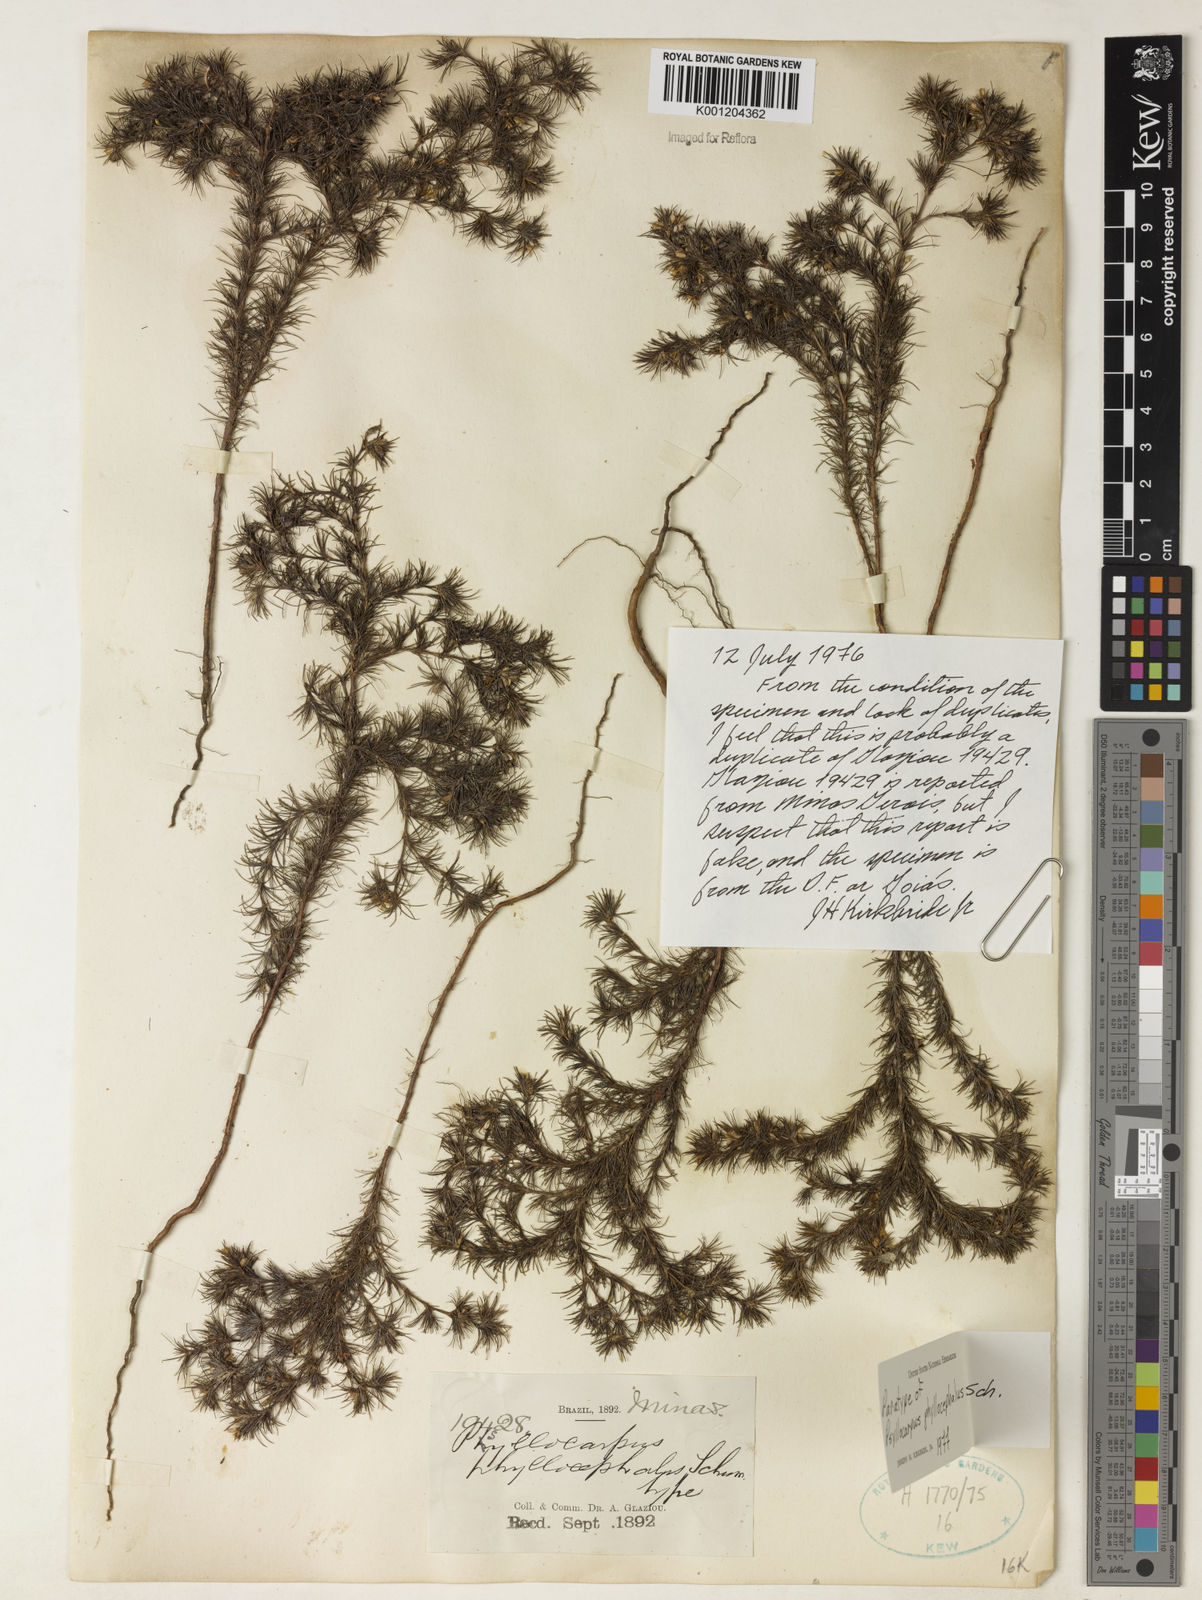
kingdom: Plantae
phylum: Tracheophyta
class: Magnoliopsida
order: Gentianales
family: Rubiaceae
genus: Psyllocarpus
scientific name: Psyllocarpus phyllocephalus
